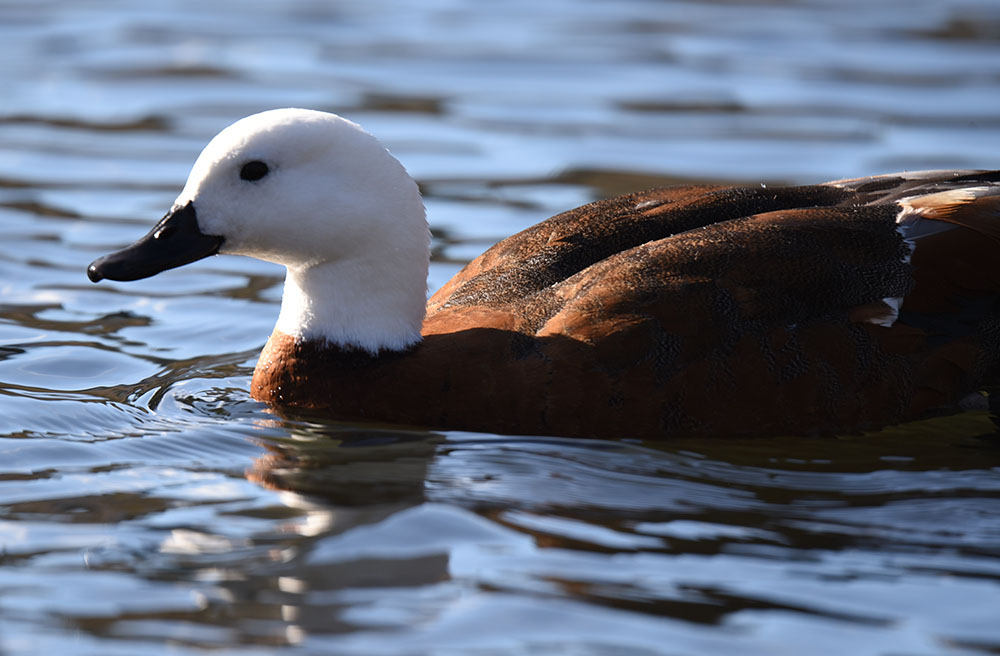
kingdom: Animalia
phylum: Chordata
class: Aves
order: Anseriformes
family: Anatidae
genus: Tadorna
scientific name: Tadorna variegata
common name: Paradise shelduck
